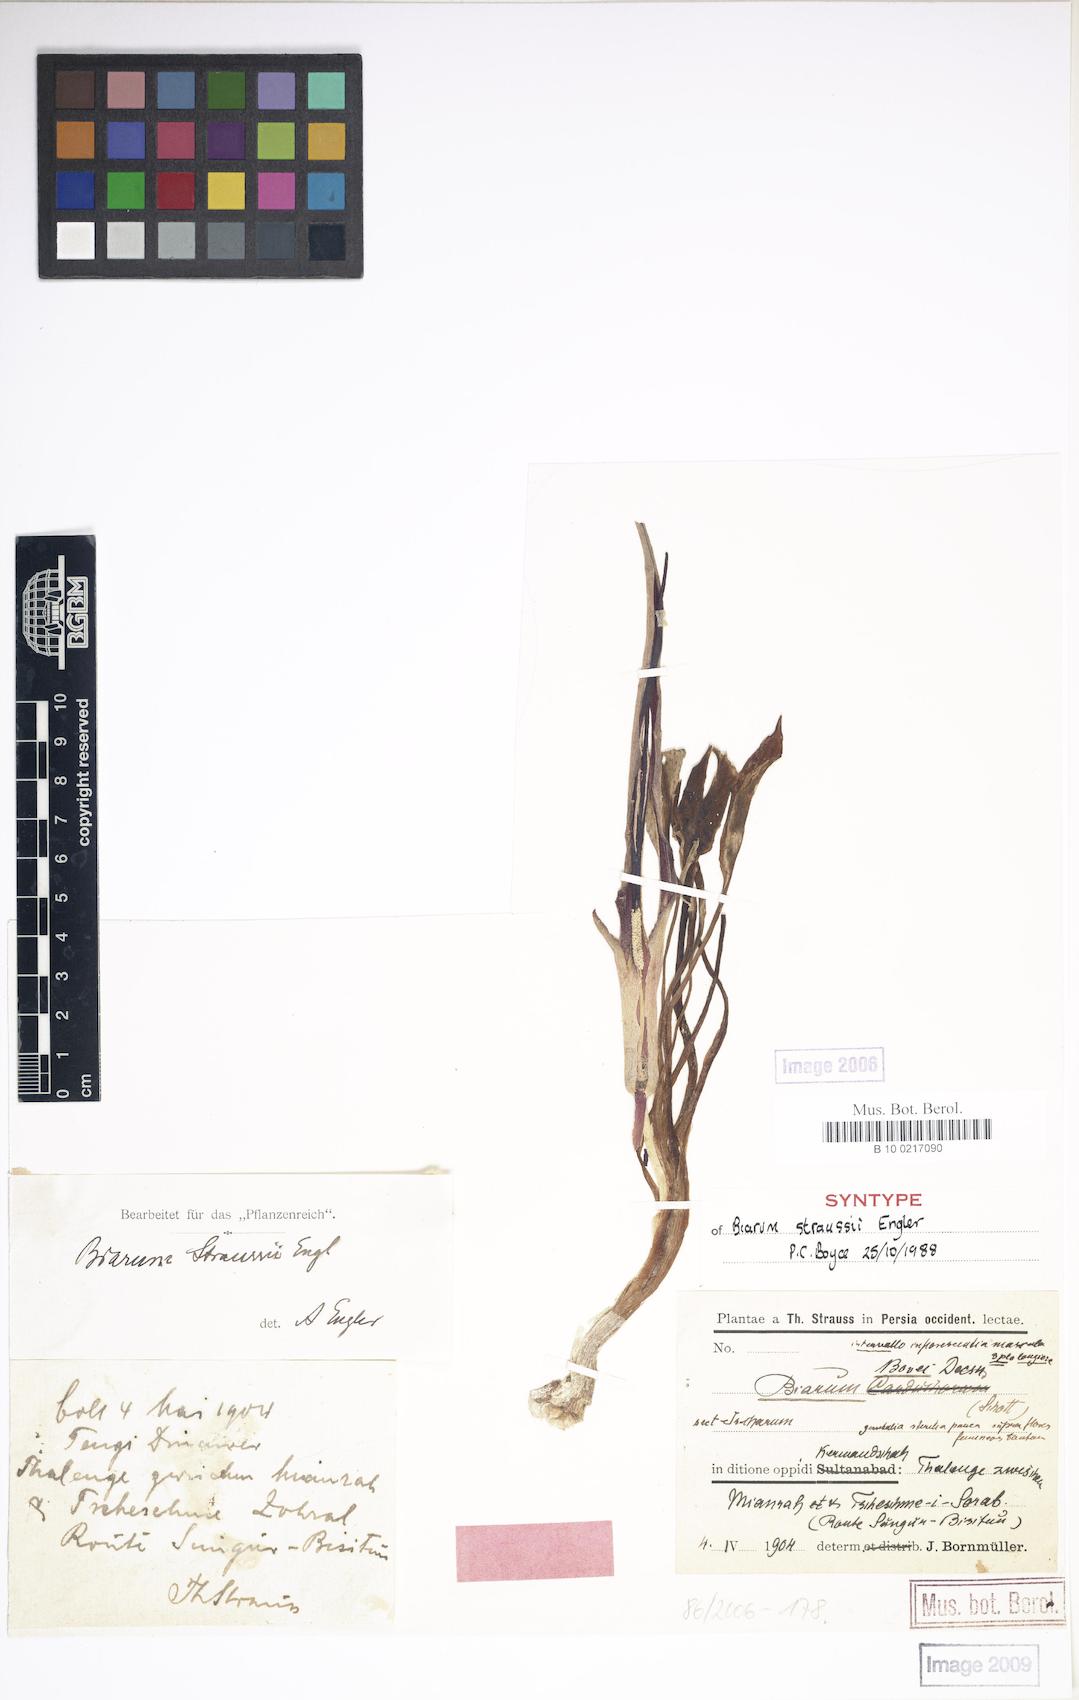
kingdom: Plantae
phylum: Tracheophyta
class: Liliopsida
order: Alismatales
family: Araceae
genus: Biarum
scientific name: Biarum straussii
